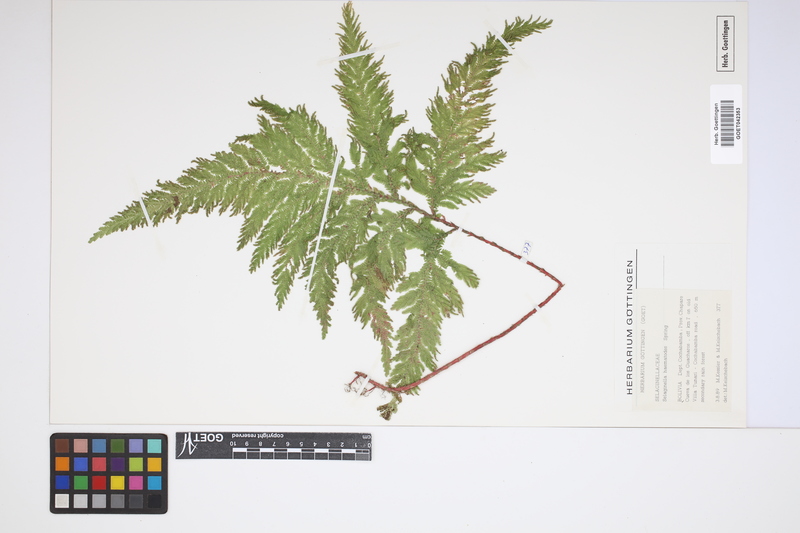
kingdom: Plantae
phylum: Tracheophyta
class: Lycopodiopsida
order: Selaginellales
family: Selaginellaceae
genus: Selaginella
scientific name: Selaginella haematodes
